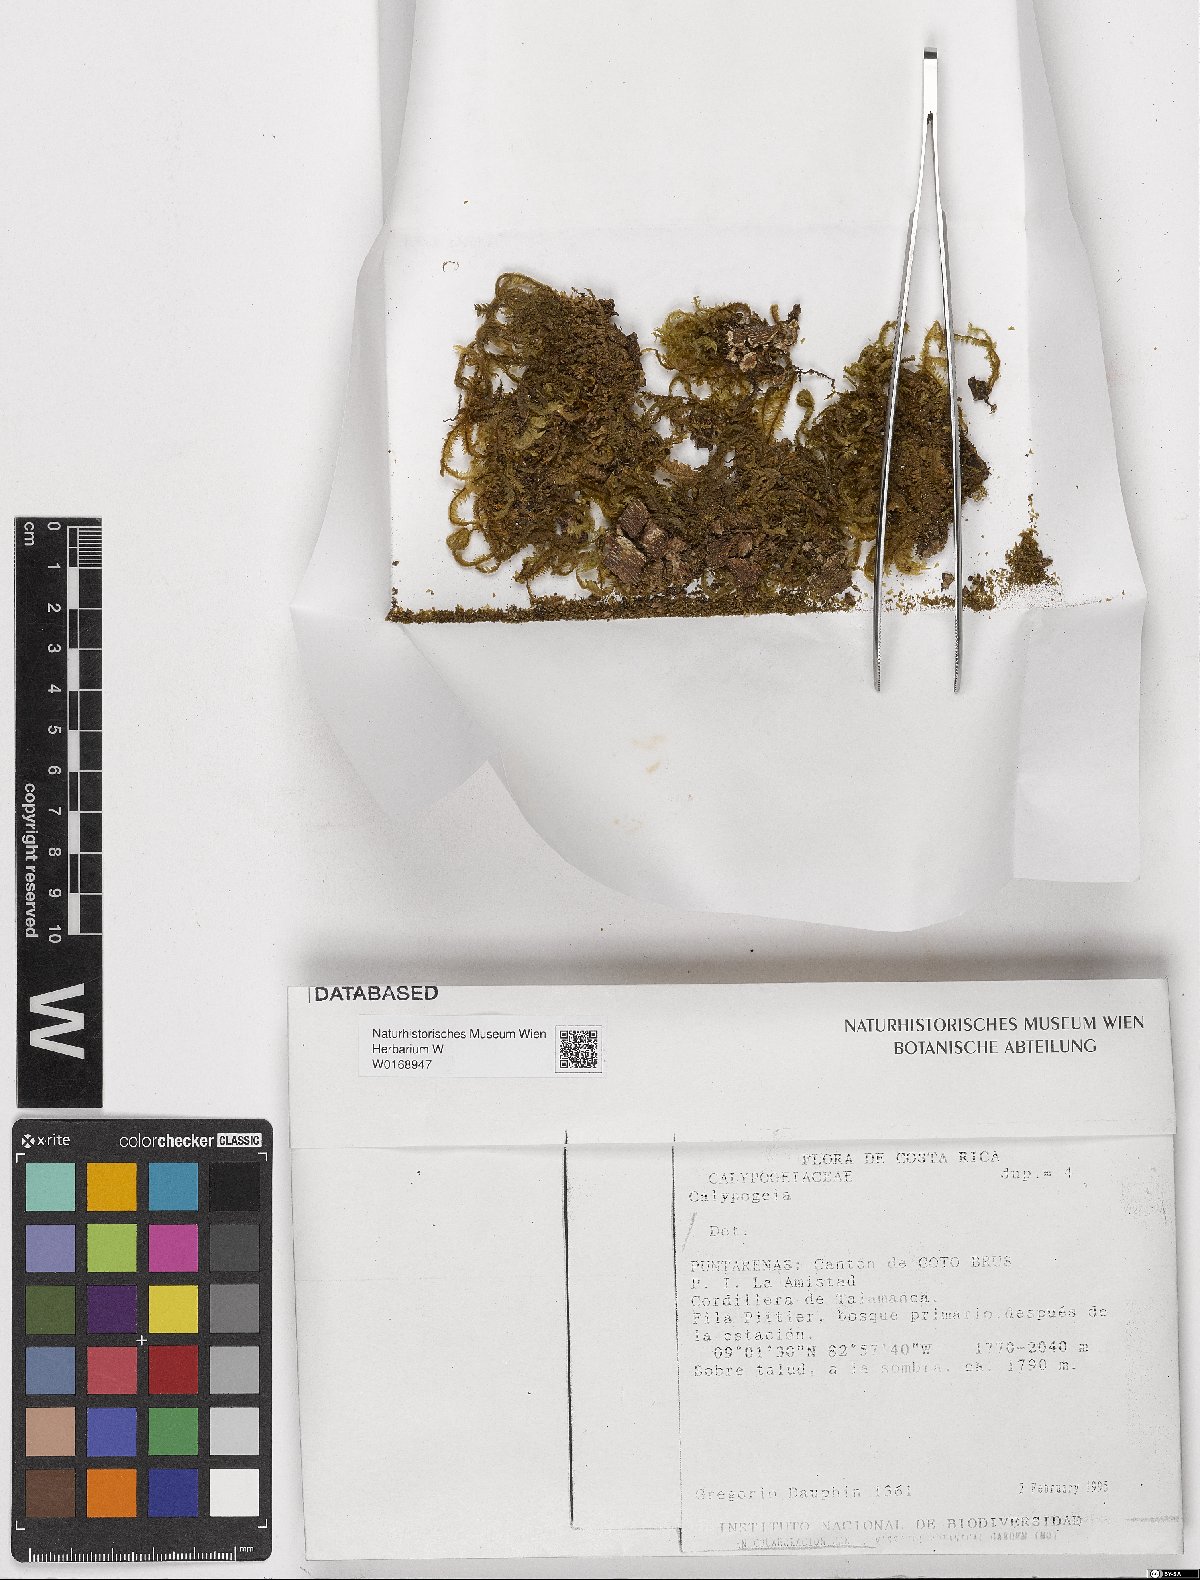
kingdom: Plantae
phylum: Marchantiophyta
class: Jungermanniopsida
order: Jungermanniales
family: Calypogeiaceae
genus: Calypogeia
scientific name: Calypogeia
